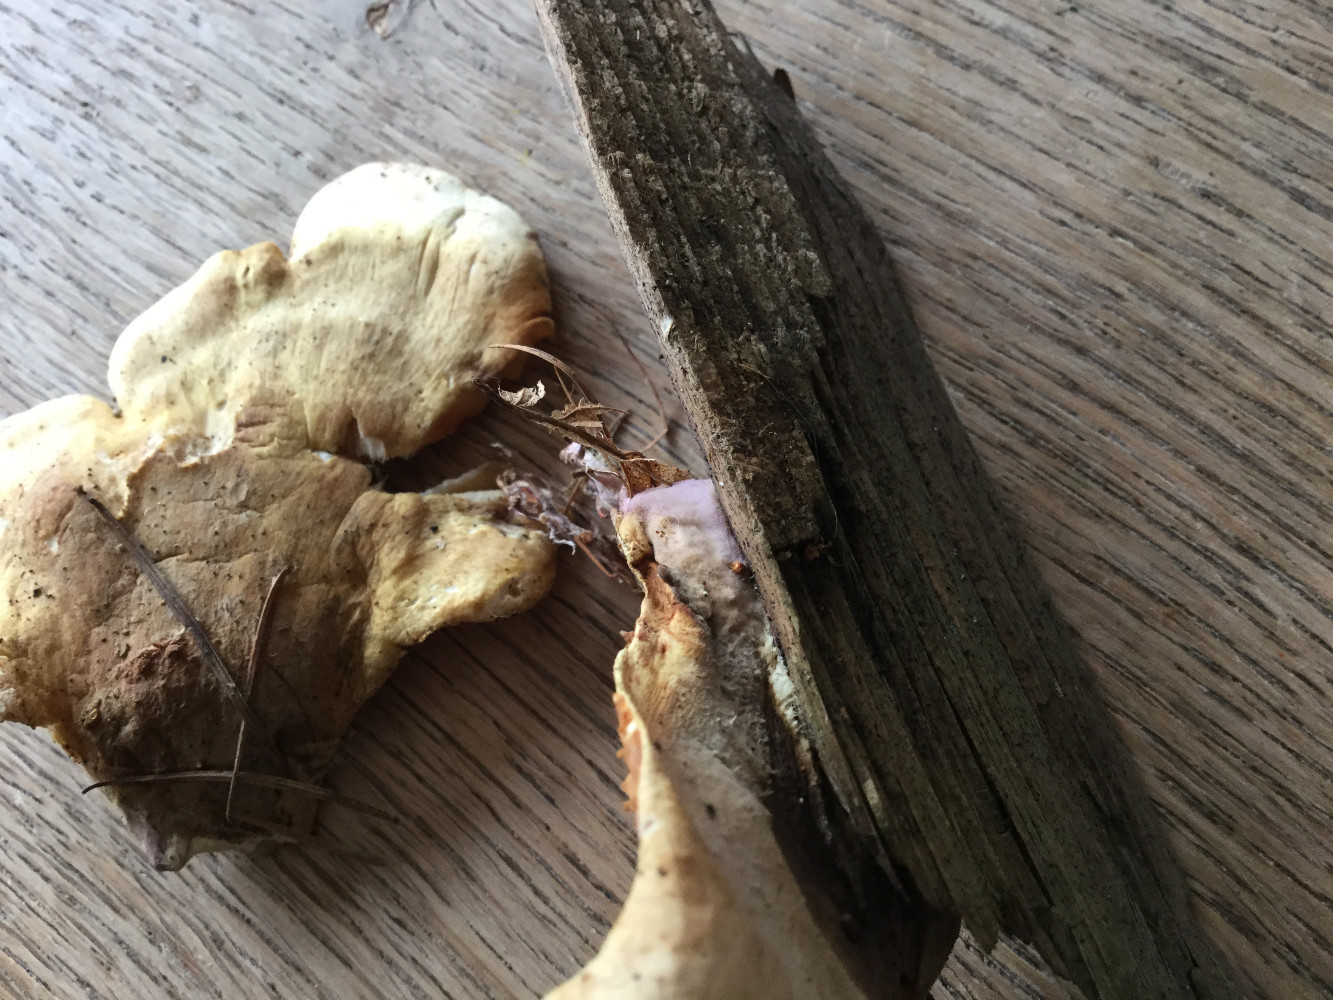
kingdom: Fungi
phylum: Basidiomycota
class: Agaricomycetes
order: Boletales
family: Tapinellaceae
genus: Tapinella
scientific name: Tapinella panuoides
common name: tømmer-viftesvamp
